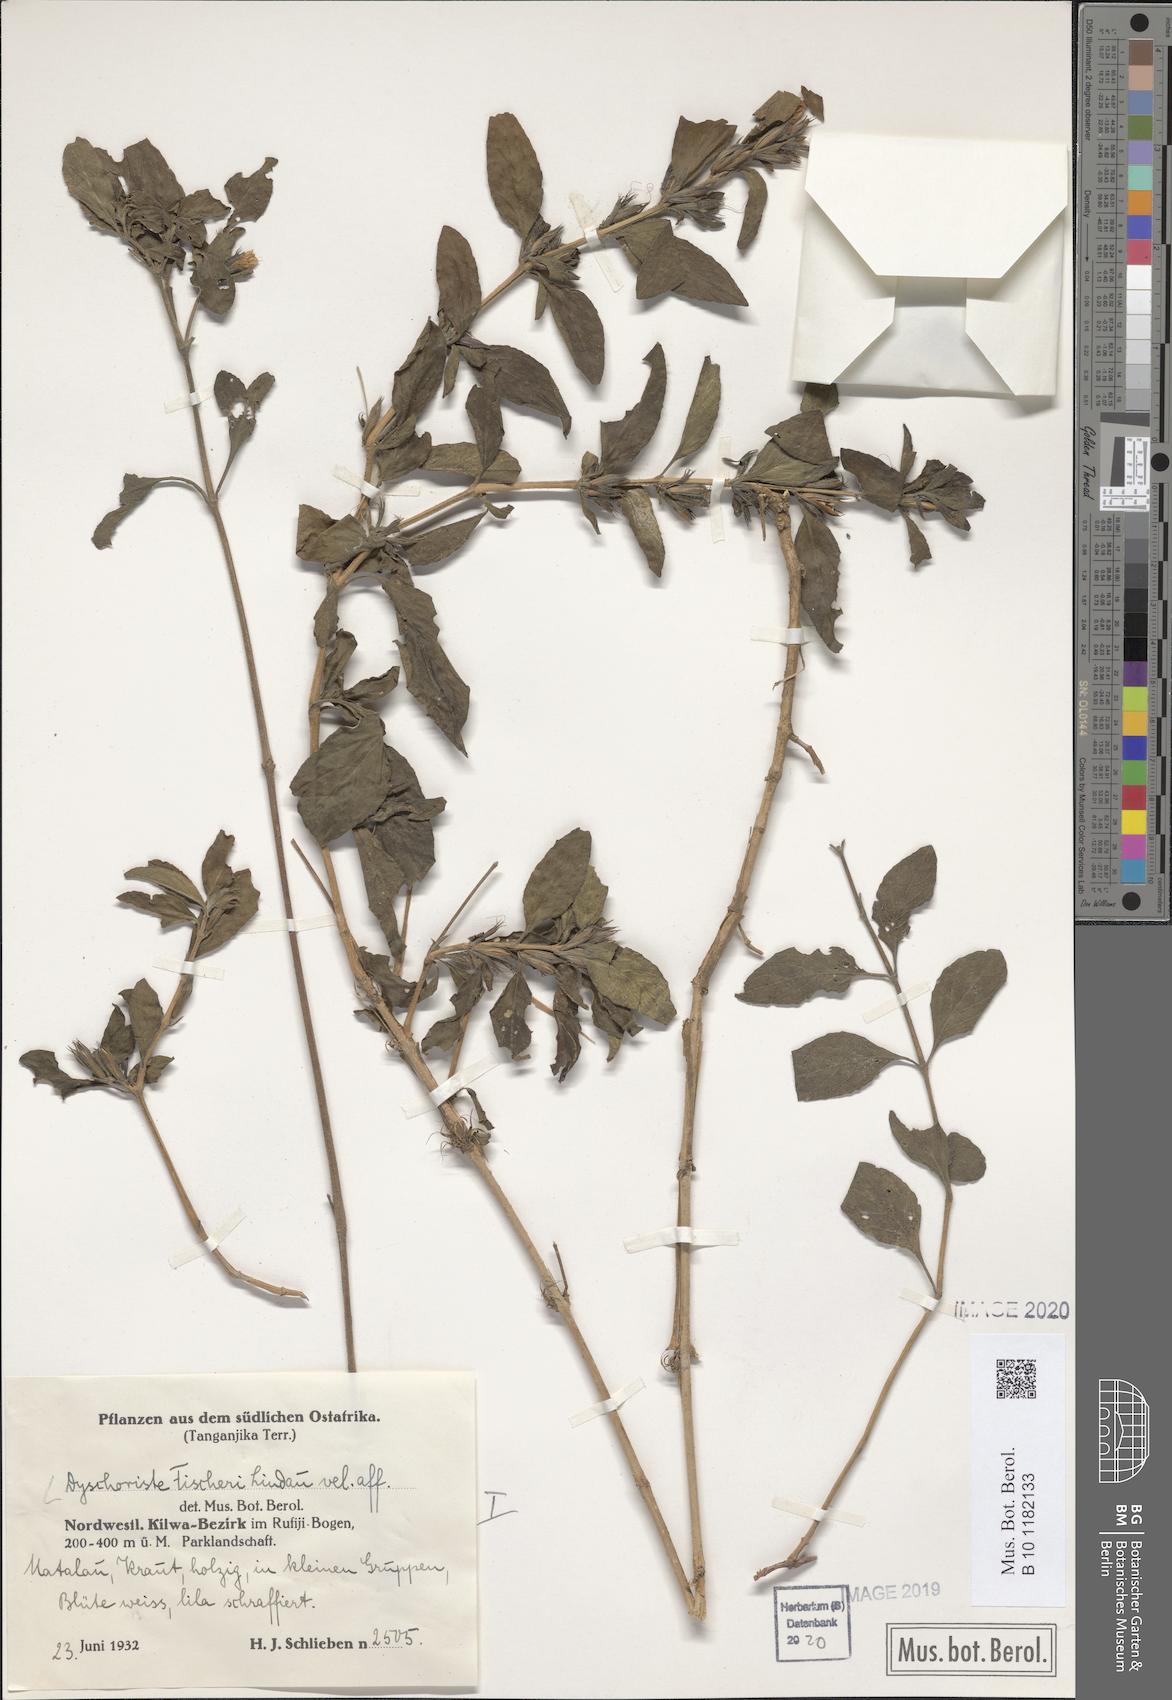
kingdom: Plantae
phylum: Tracheophyta
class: Magnoliopsida
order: Lamiales
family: Acanthaceae
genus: Dyschoriste
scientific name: Dyschoriste hildebrandtii
